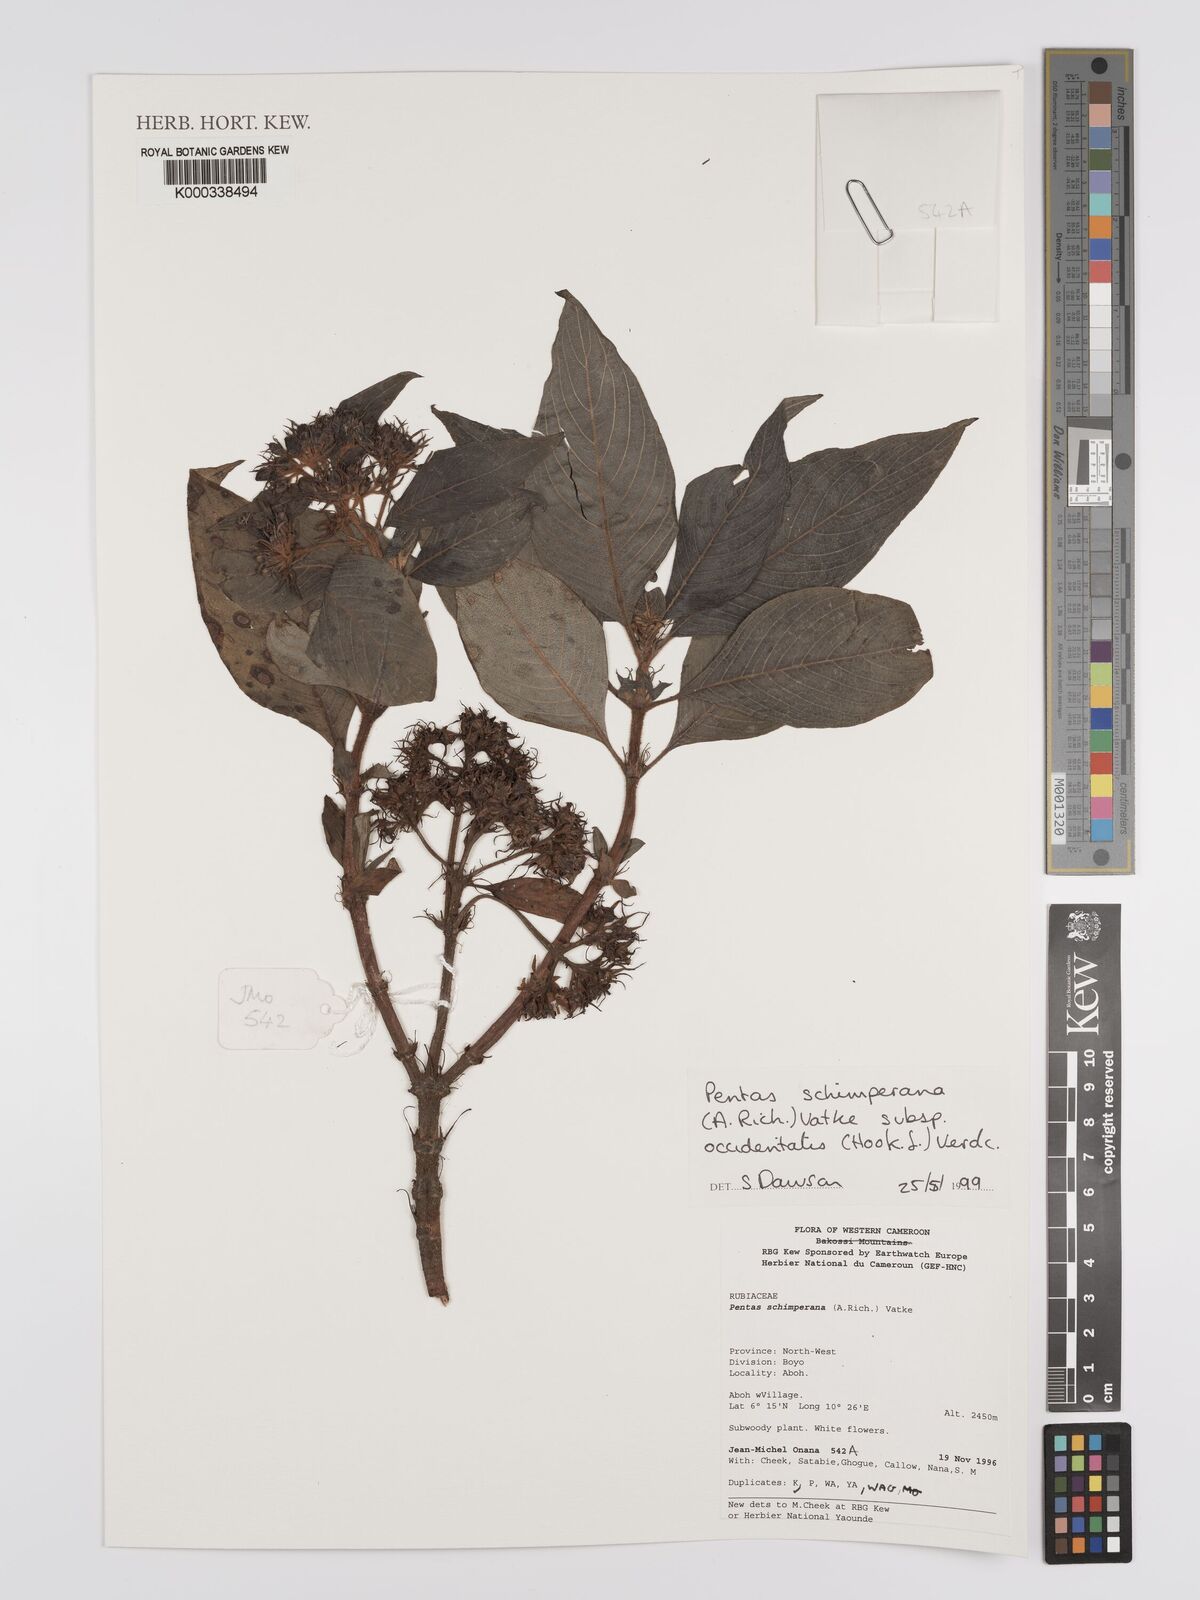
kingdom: Plantae
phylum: Tracheophyta
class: Magnoliopsida
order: Gentianales
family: Rubiaceae
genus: Phyllopentas
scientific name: Phyllopentas schimperi
